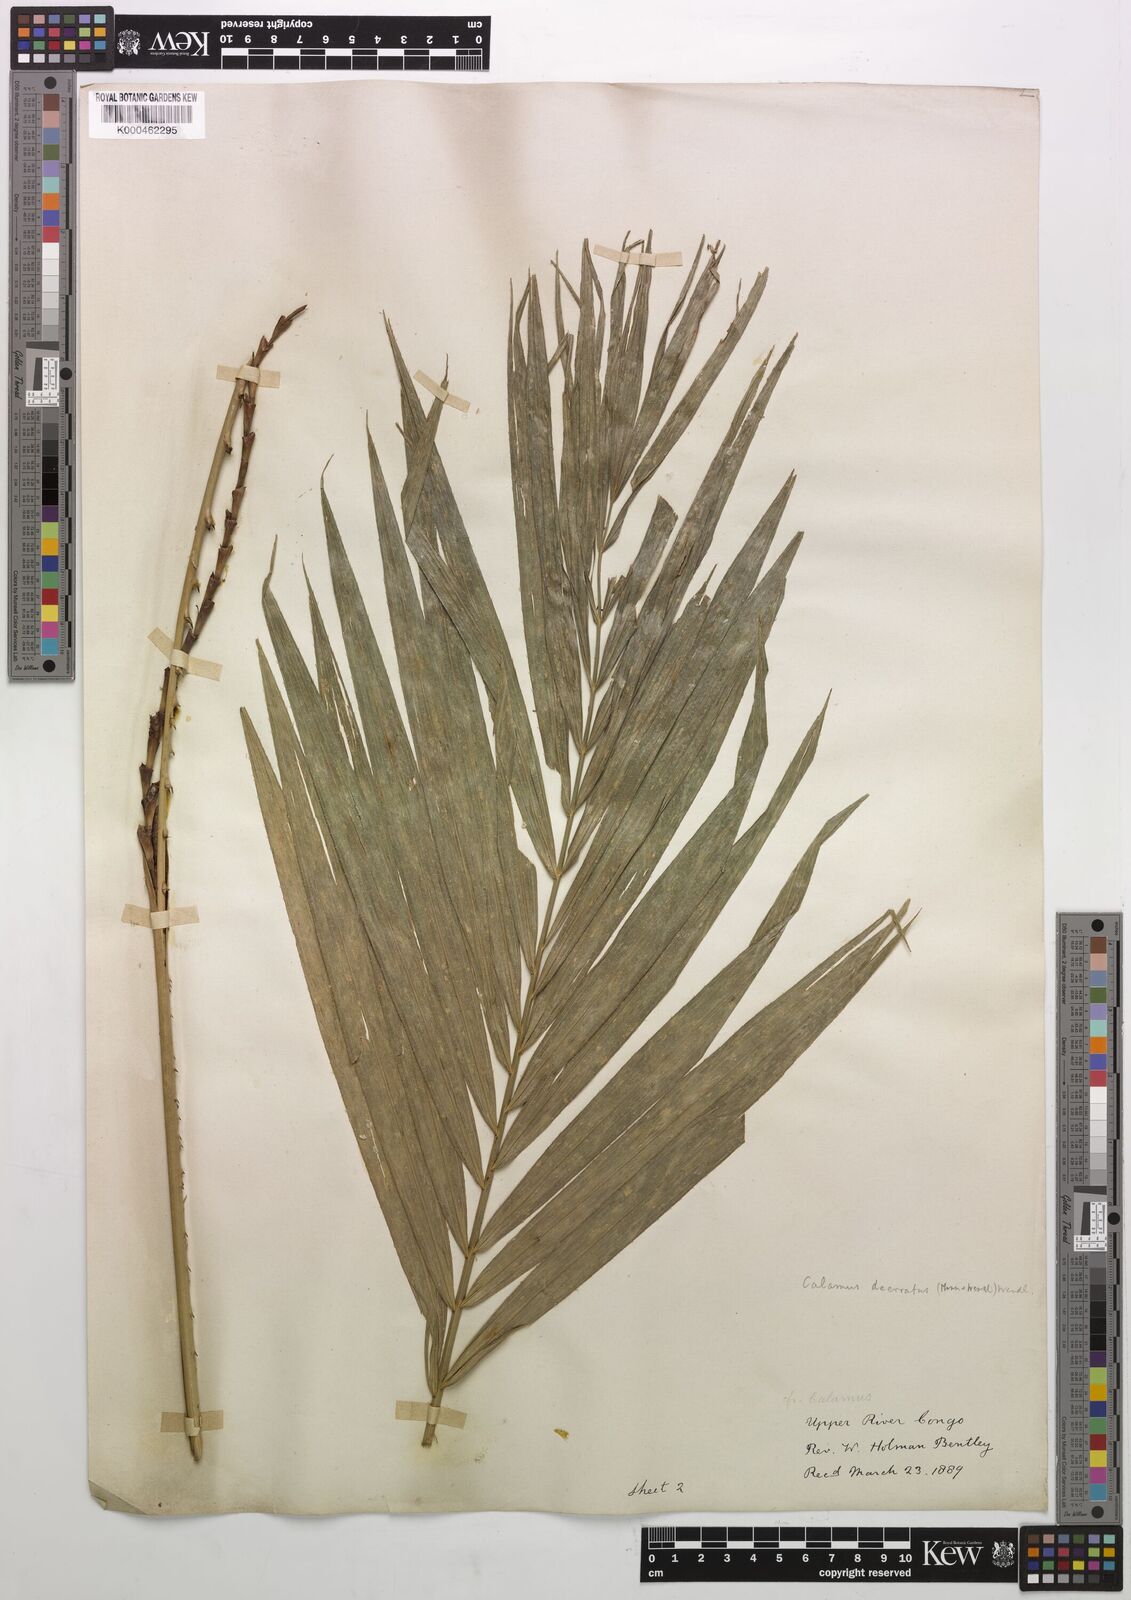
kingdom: Plantae
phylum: Tracheophyta
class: Liliopsida
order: Arecales
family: Arecaceae
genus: Eremospatha
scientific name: Eremospatha
